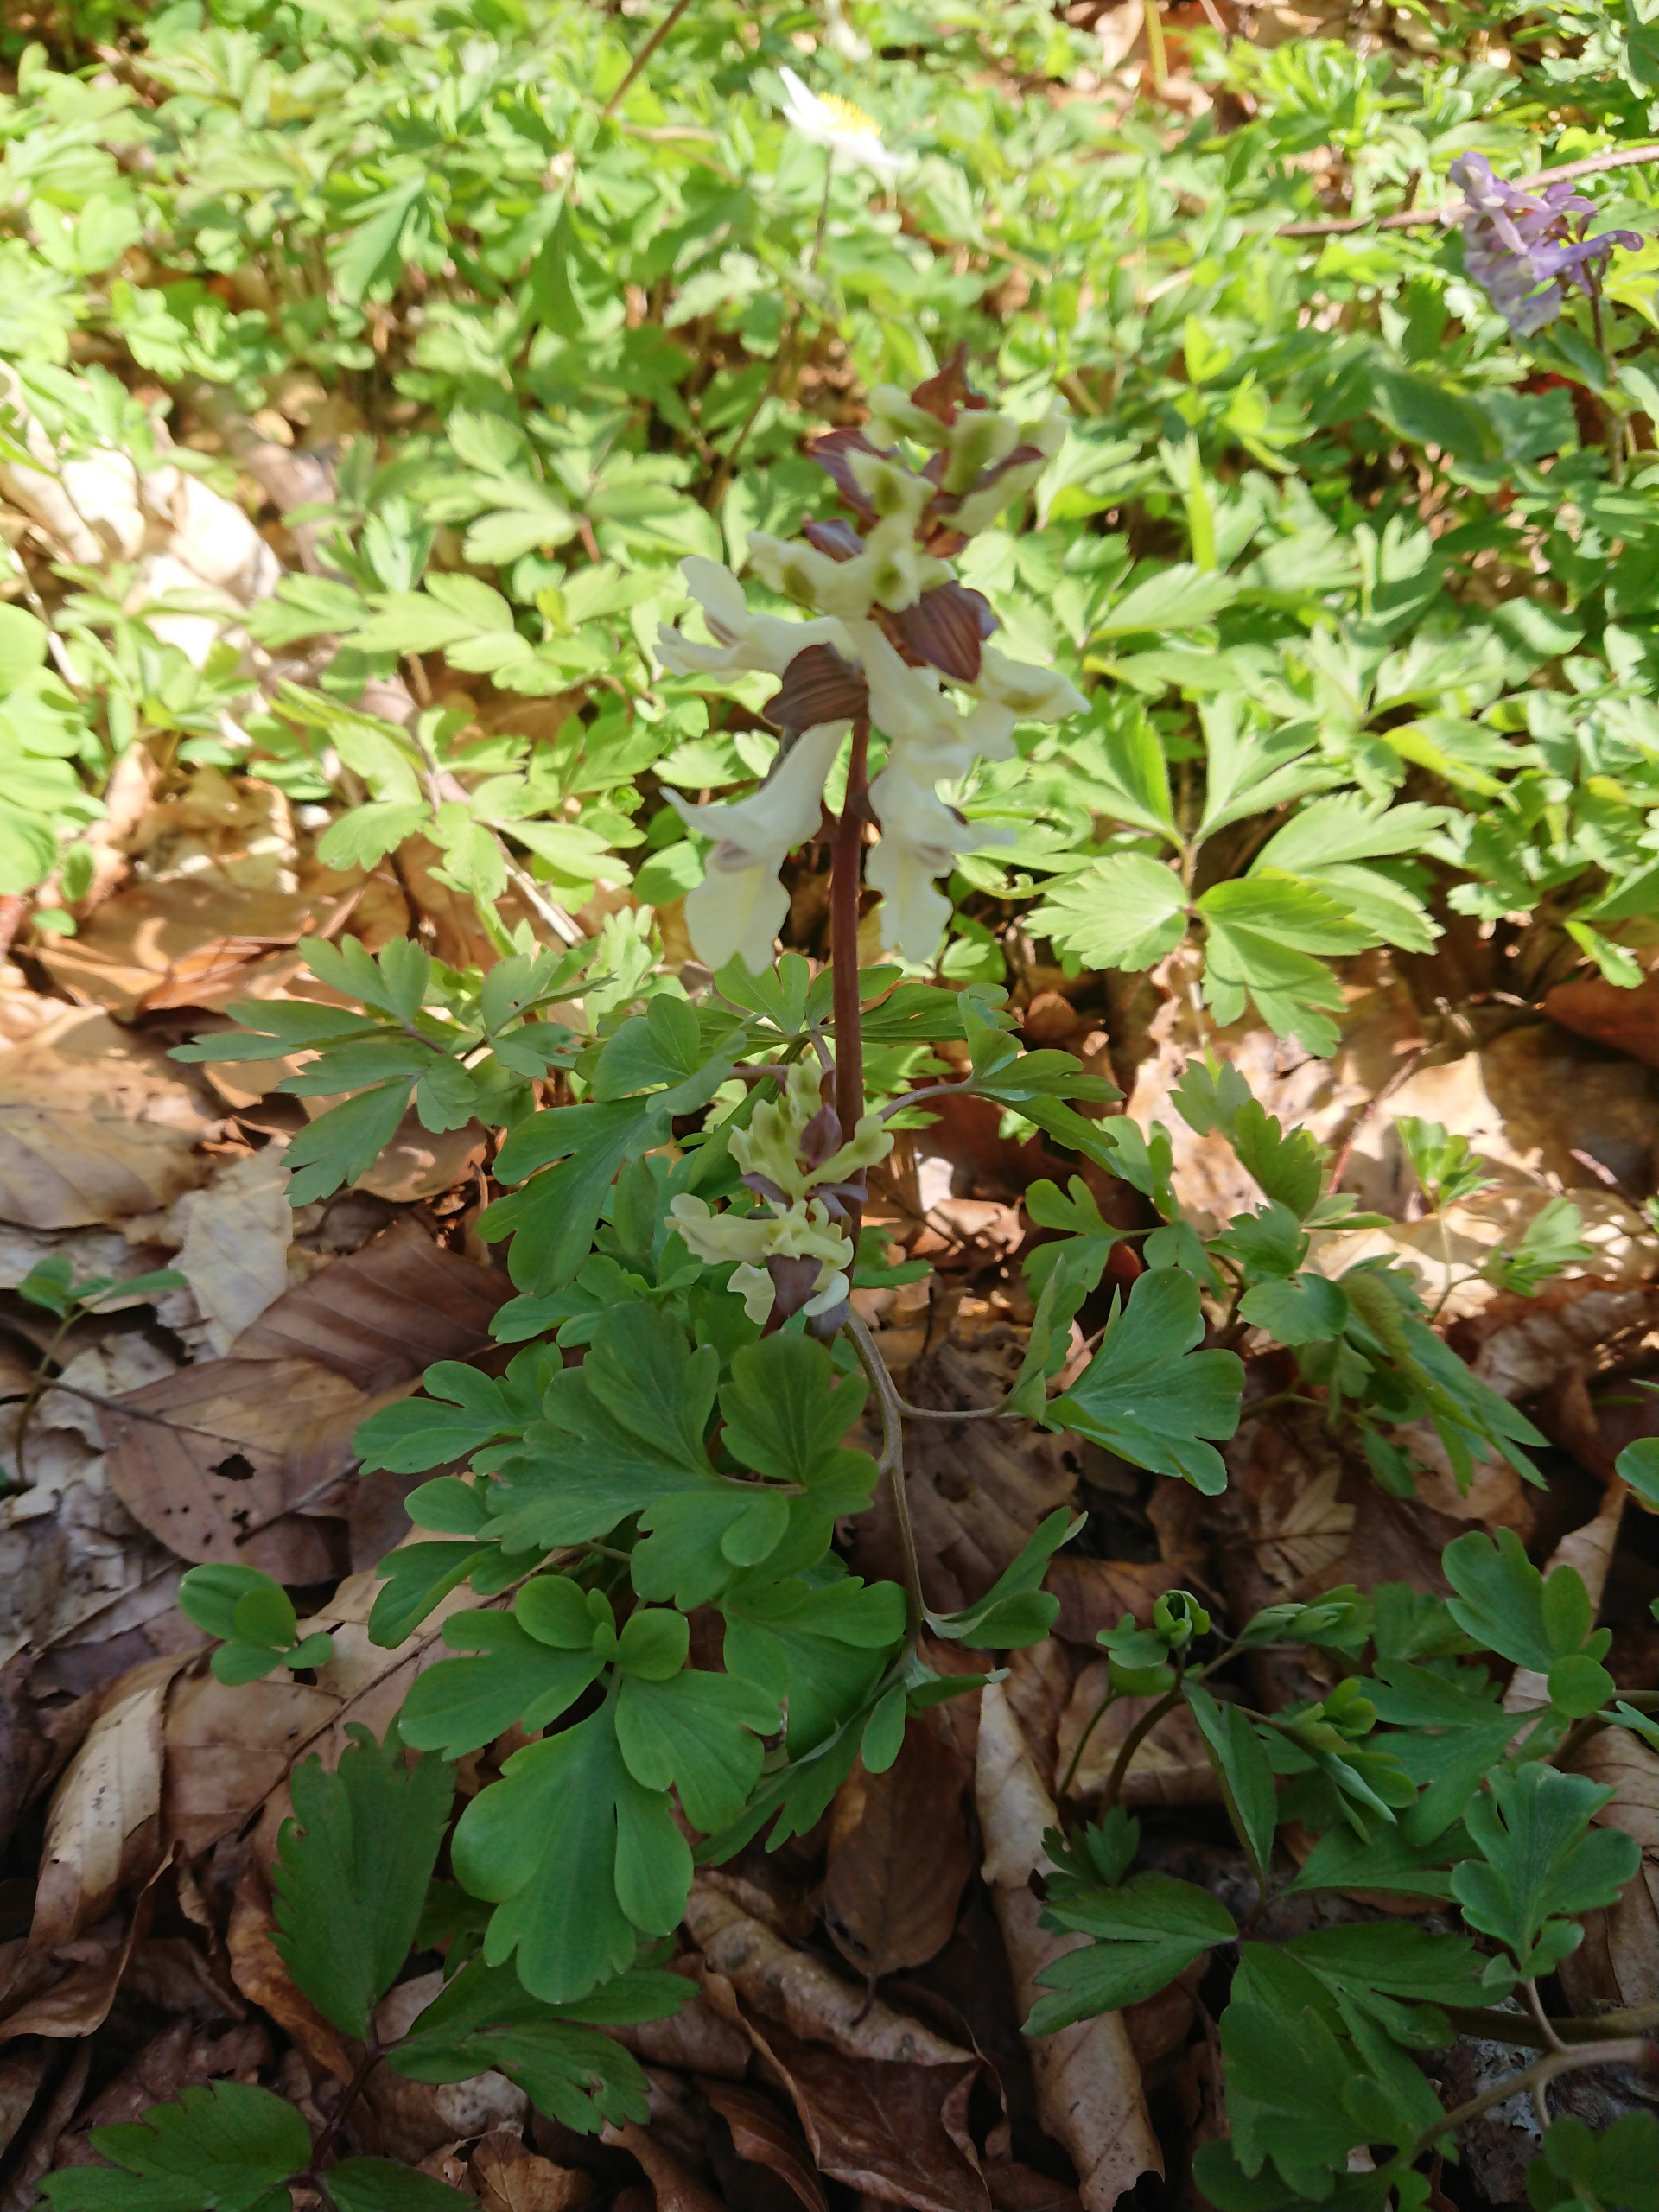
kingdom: Plantae
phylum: Tracheophyta
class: Magnoliopsida
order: Ranunculales
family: Papaveraceae
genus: Corydalis
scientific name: Corydalis cava
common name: Hulrodet lærkespore
